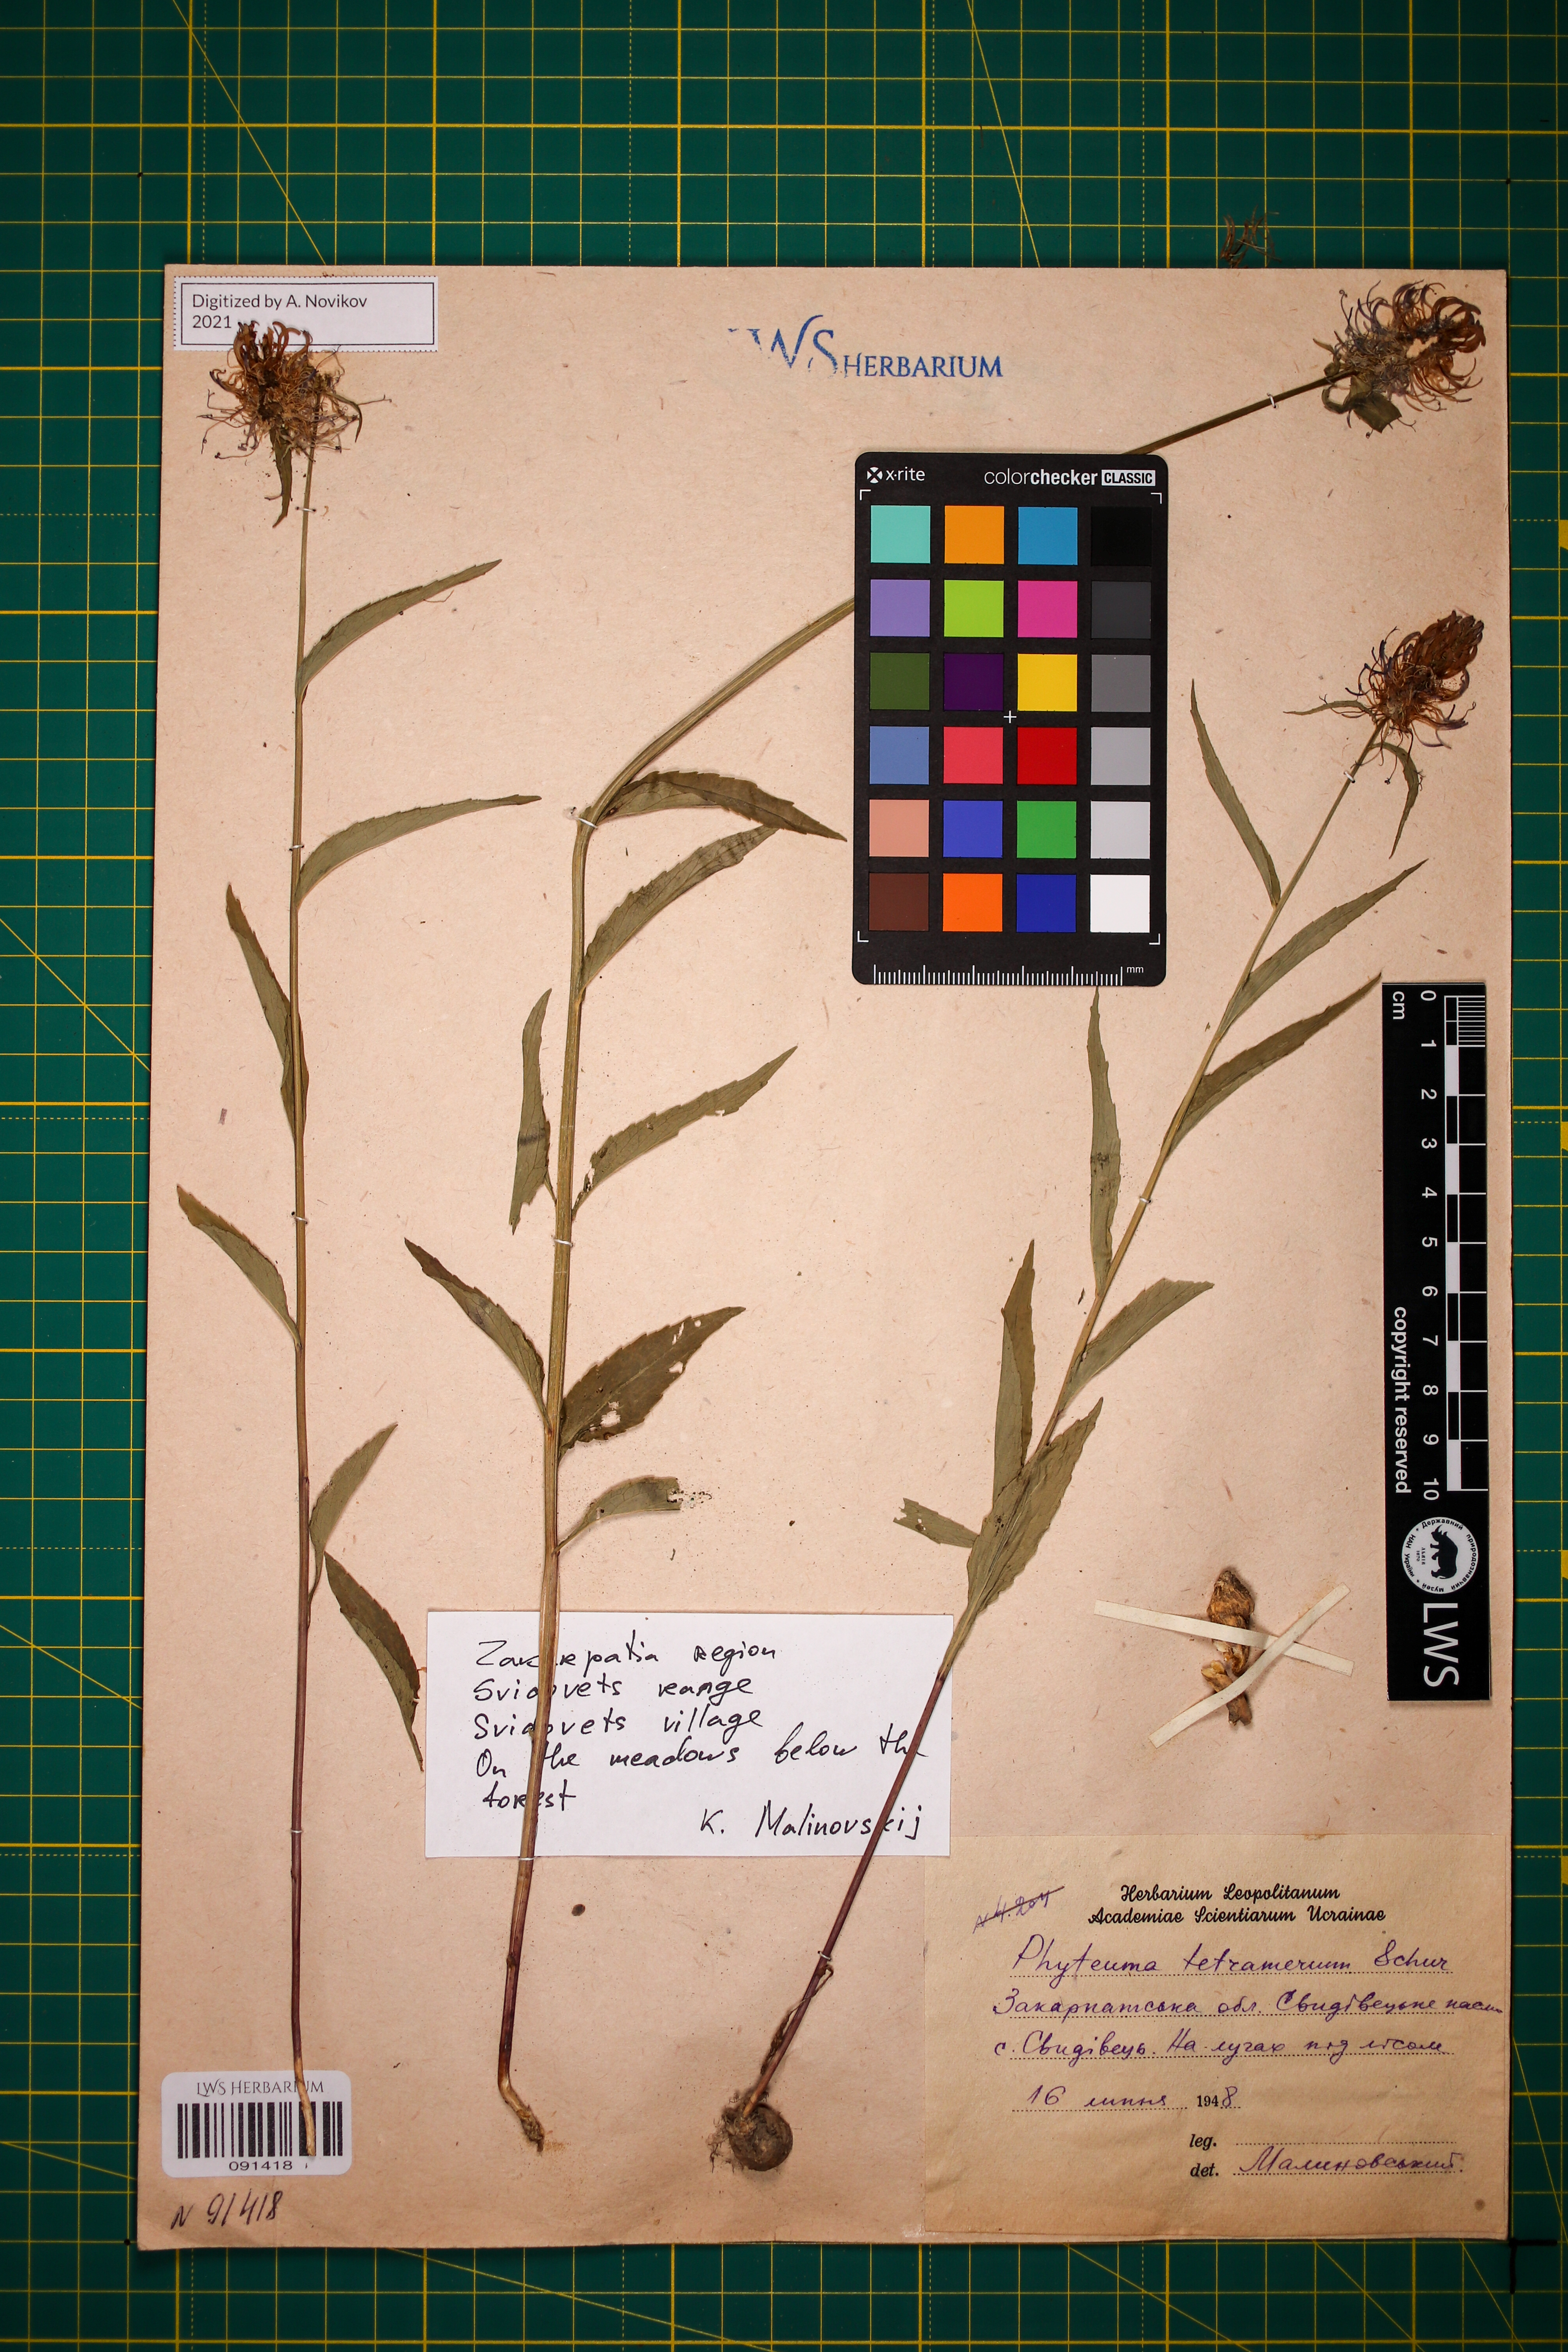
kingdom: Plantae
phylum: Tracheophyta
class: Magnoliopsida
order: Asterales
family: Campanulaceae
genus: Phyteuma
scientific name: Phyteuma tetramerum
